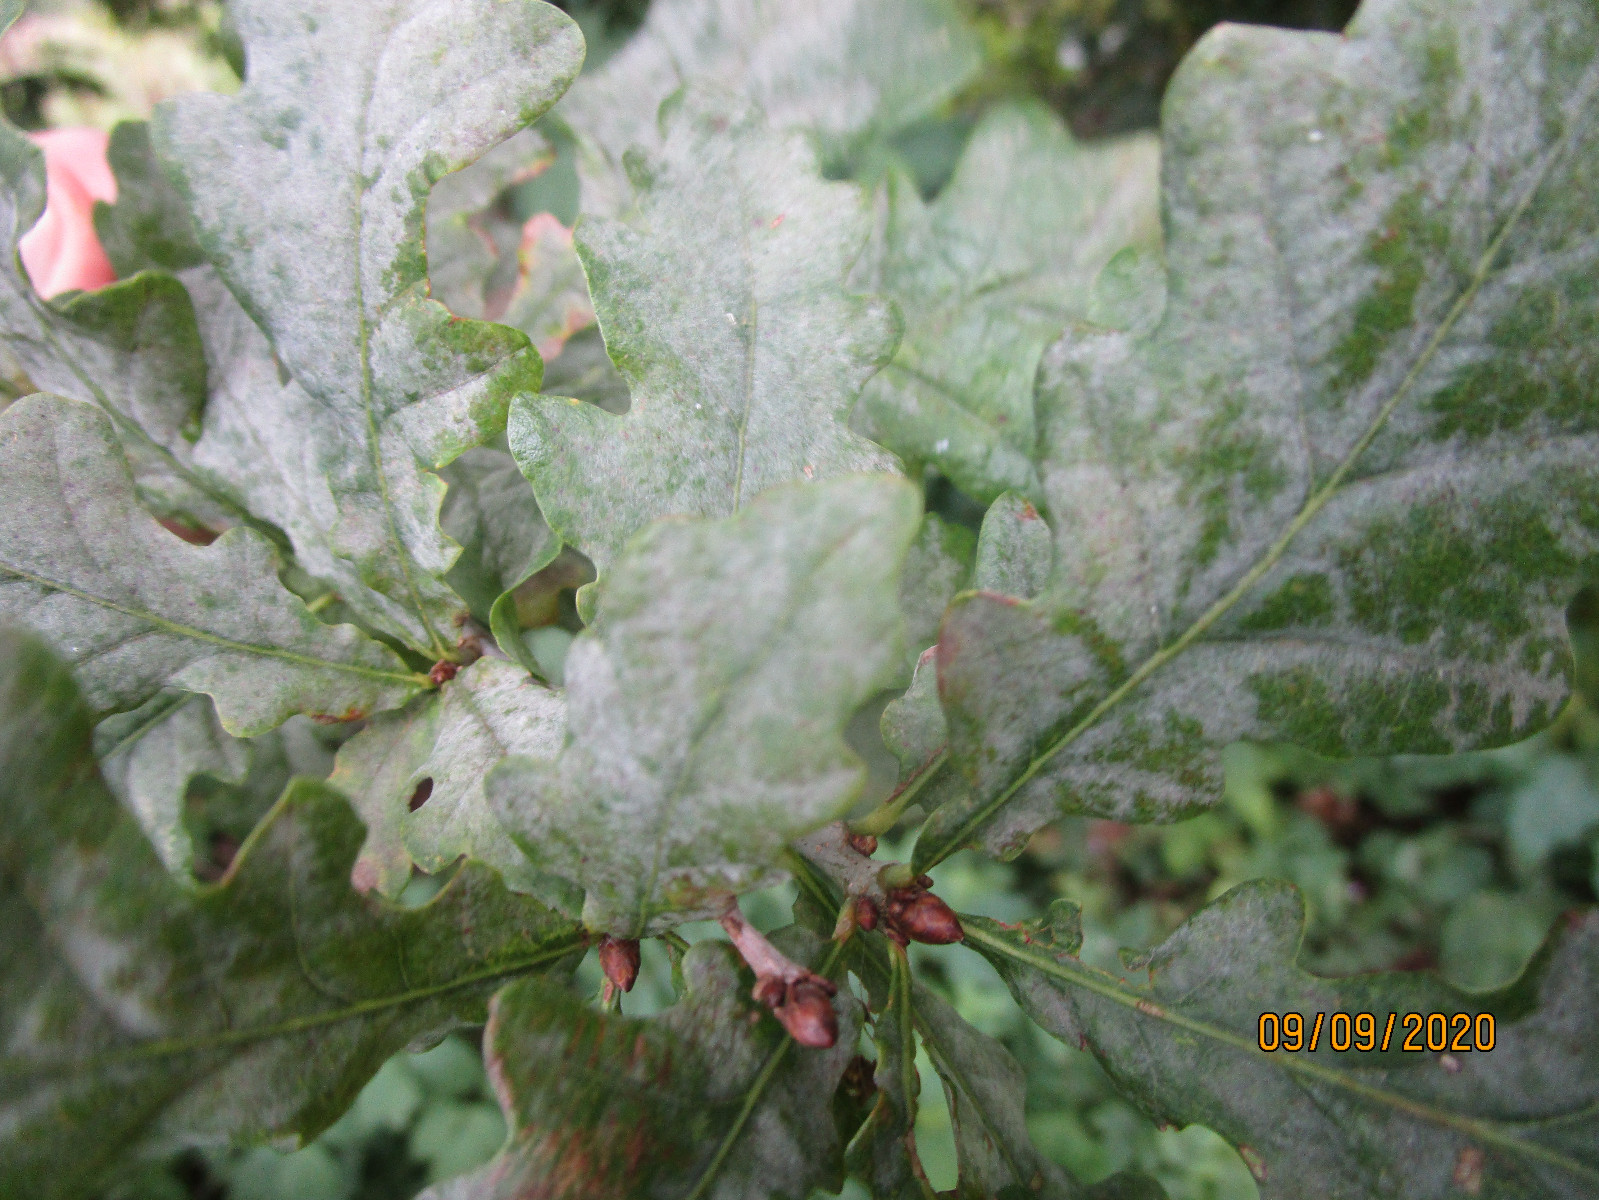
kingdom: Fungi
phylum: Ascomycota
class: Leotiomycetes
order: Helotiales
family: Erysiphaceae
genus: Erysiphe
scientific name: Erysiphe alphitoides
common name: ege-meldug
